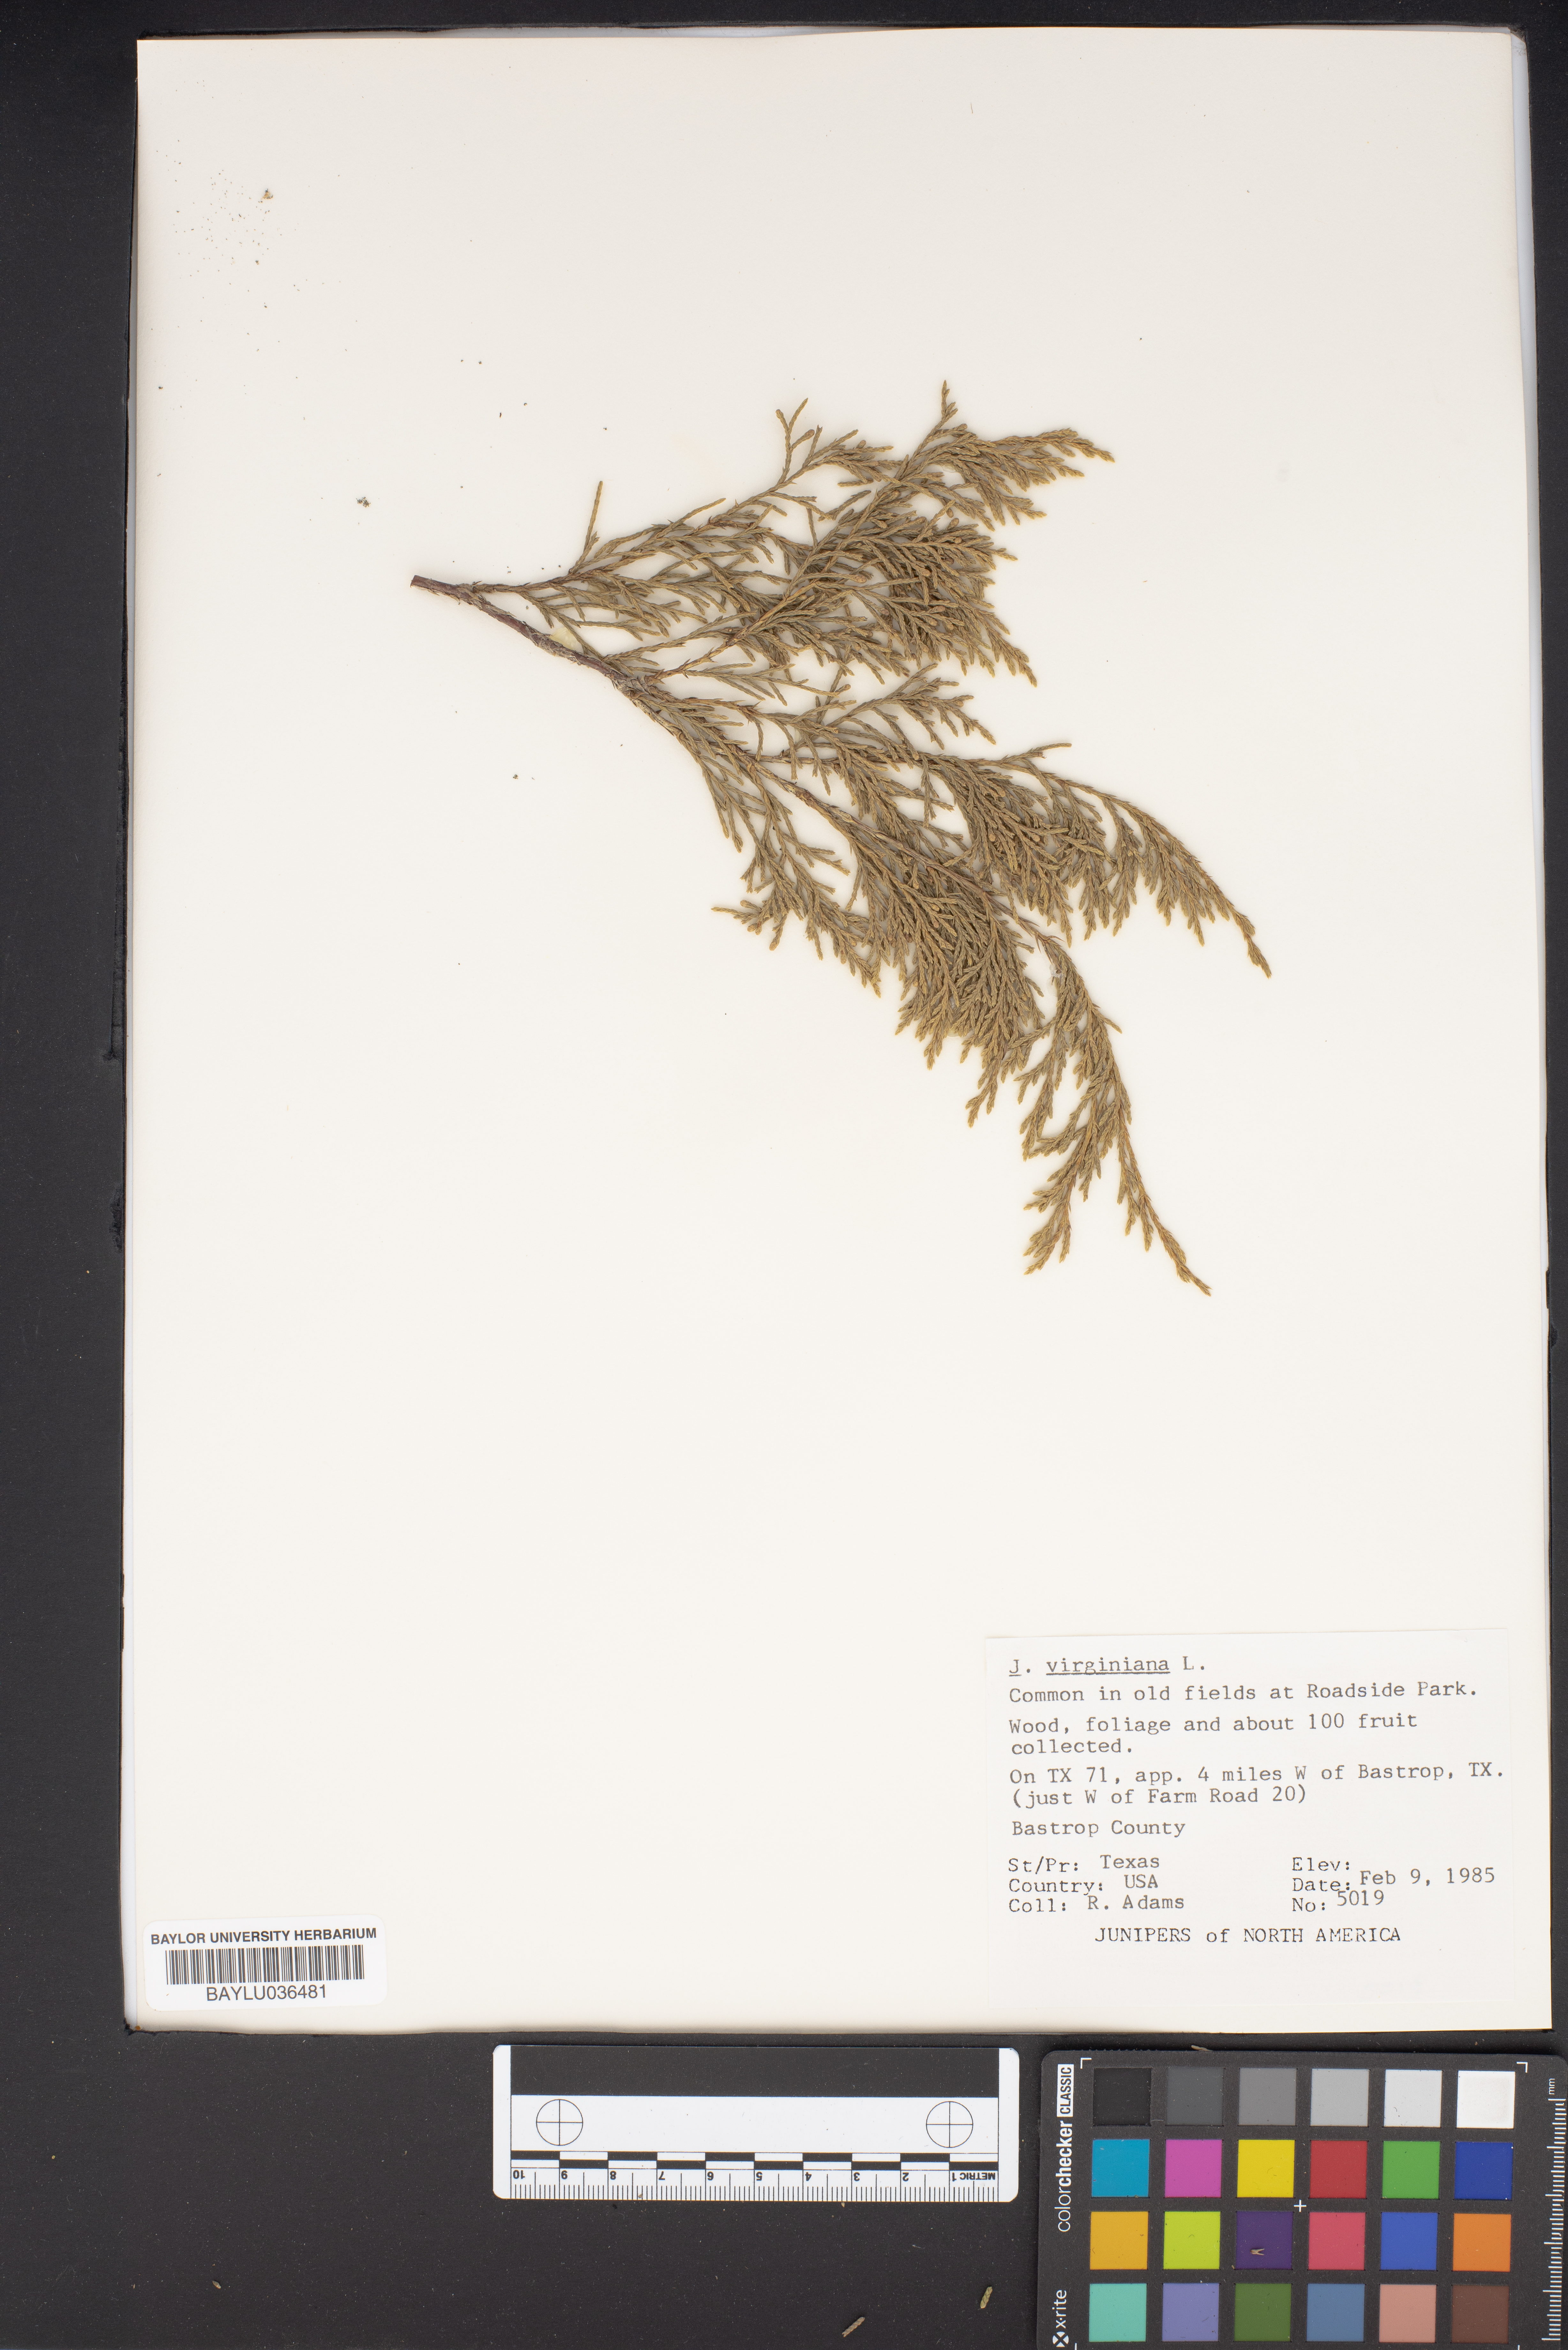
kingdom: Plantae
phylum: Tracheophyta
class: Pinopsida
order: Pinales
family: Cupressaceae
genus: Juniperus
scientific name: Juniperus virginiana
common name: Red juniper
